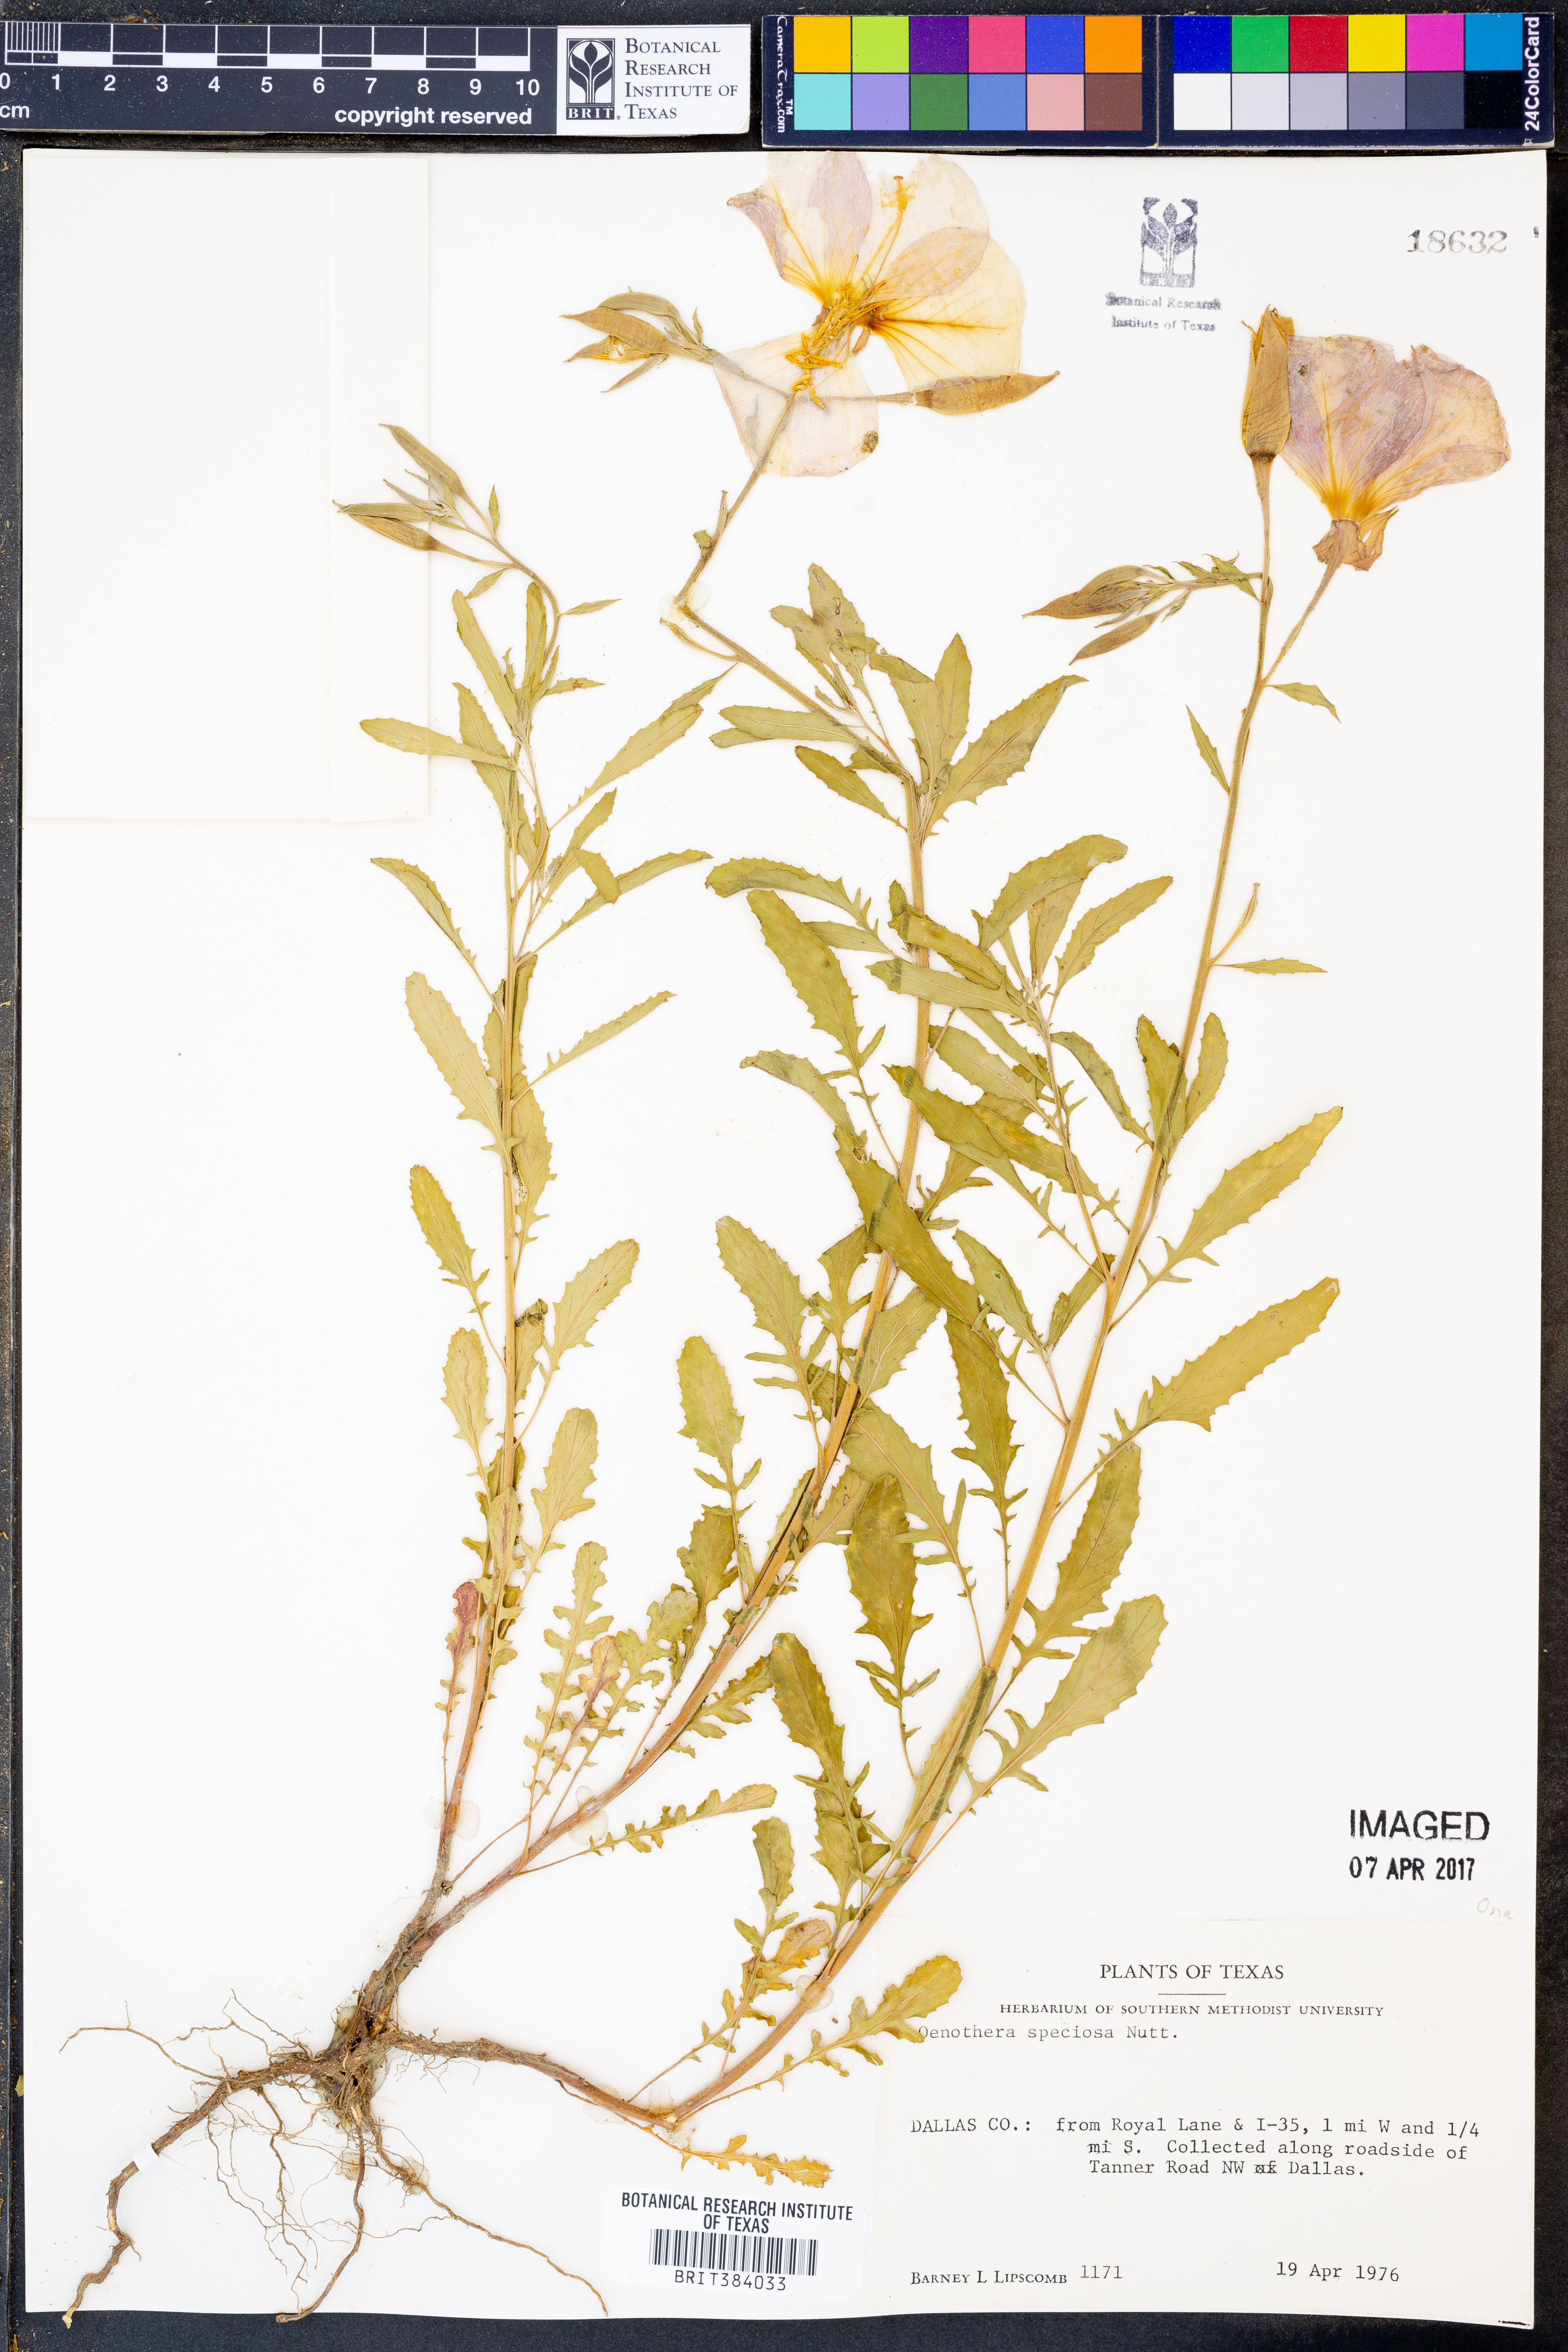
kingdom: Plantae
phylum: Tracheophyta
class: Magnoliopsida
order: Myrtales
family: Onagraceae
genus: Oenothera
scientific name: Oenothera speciosa
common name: White evening-primrose
